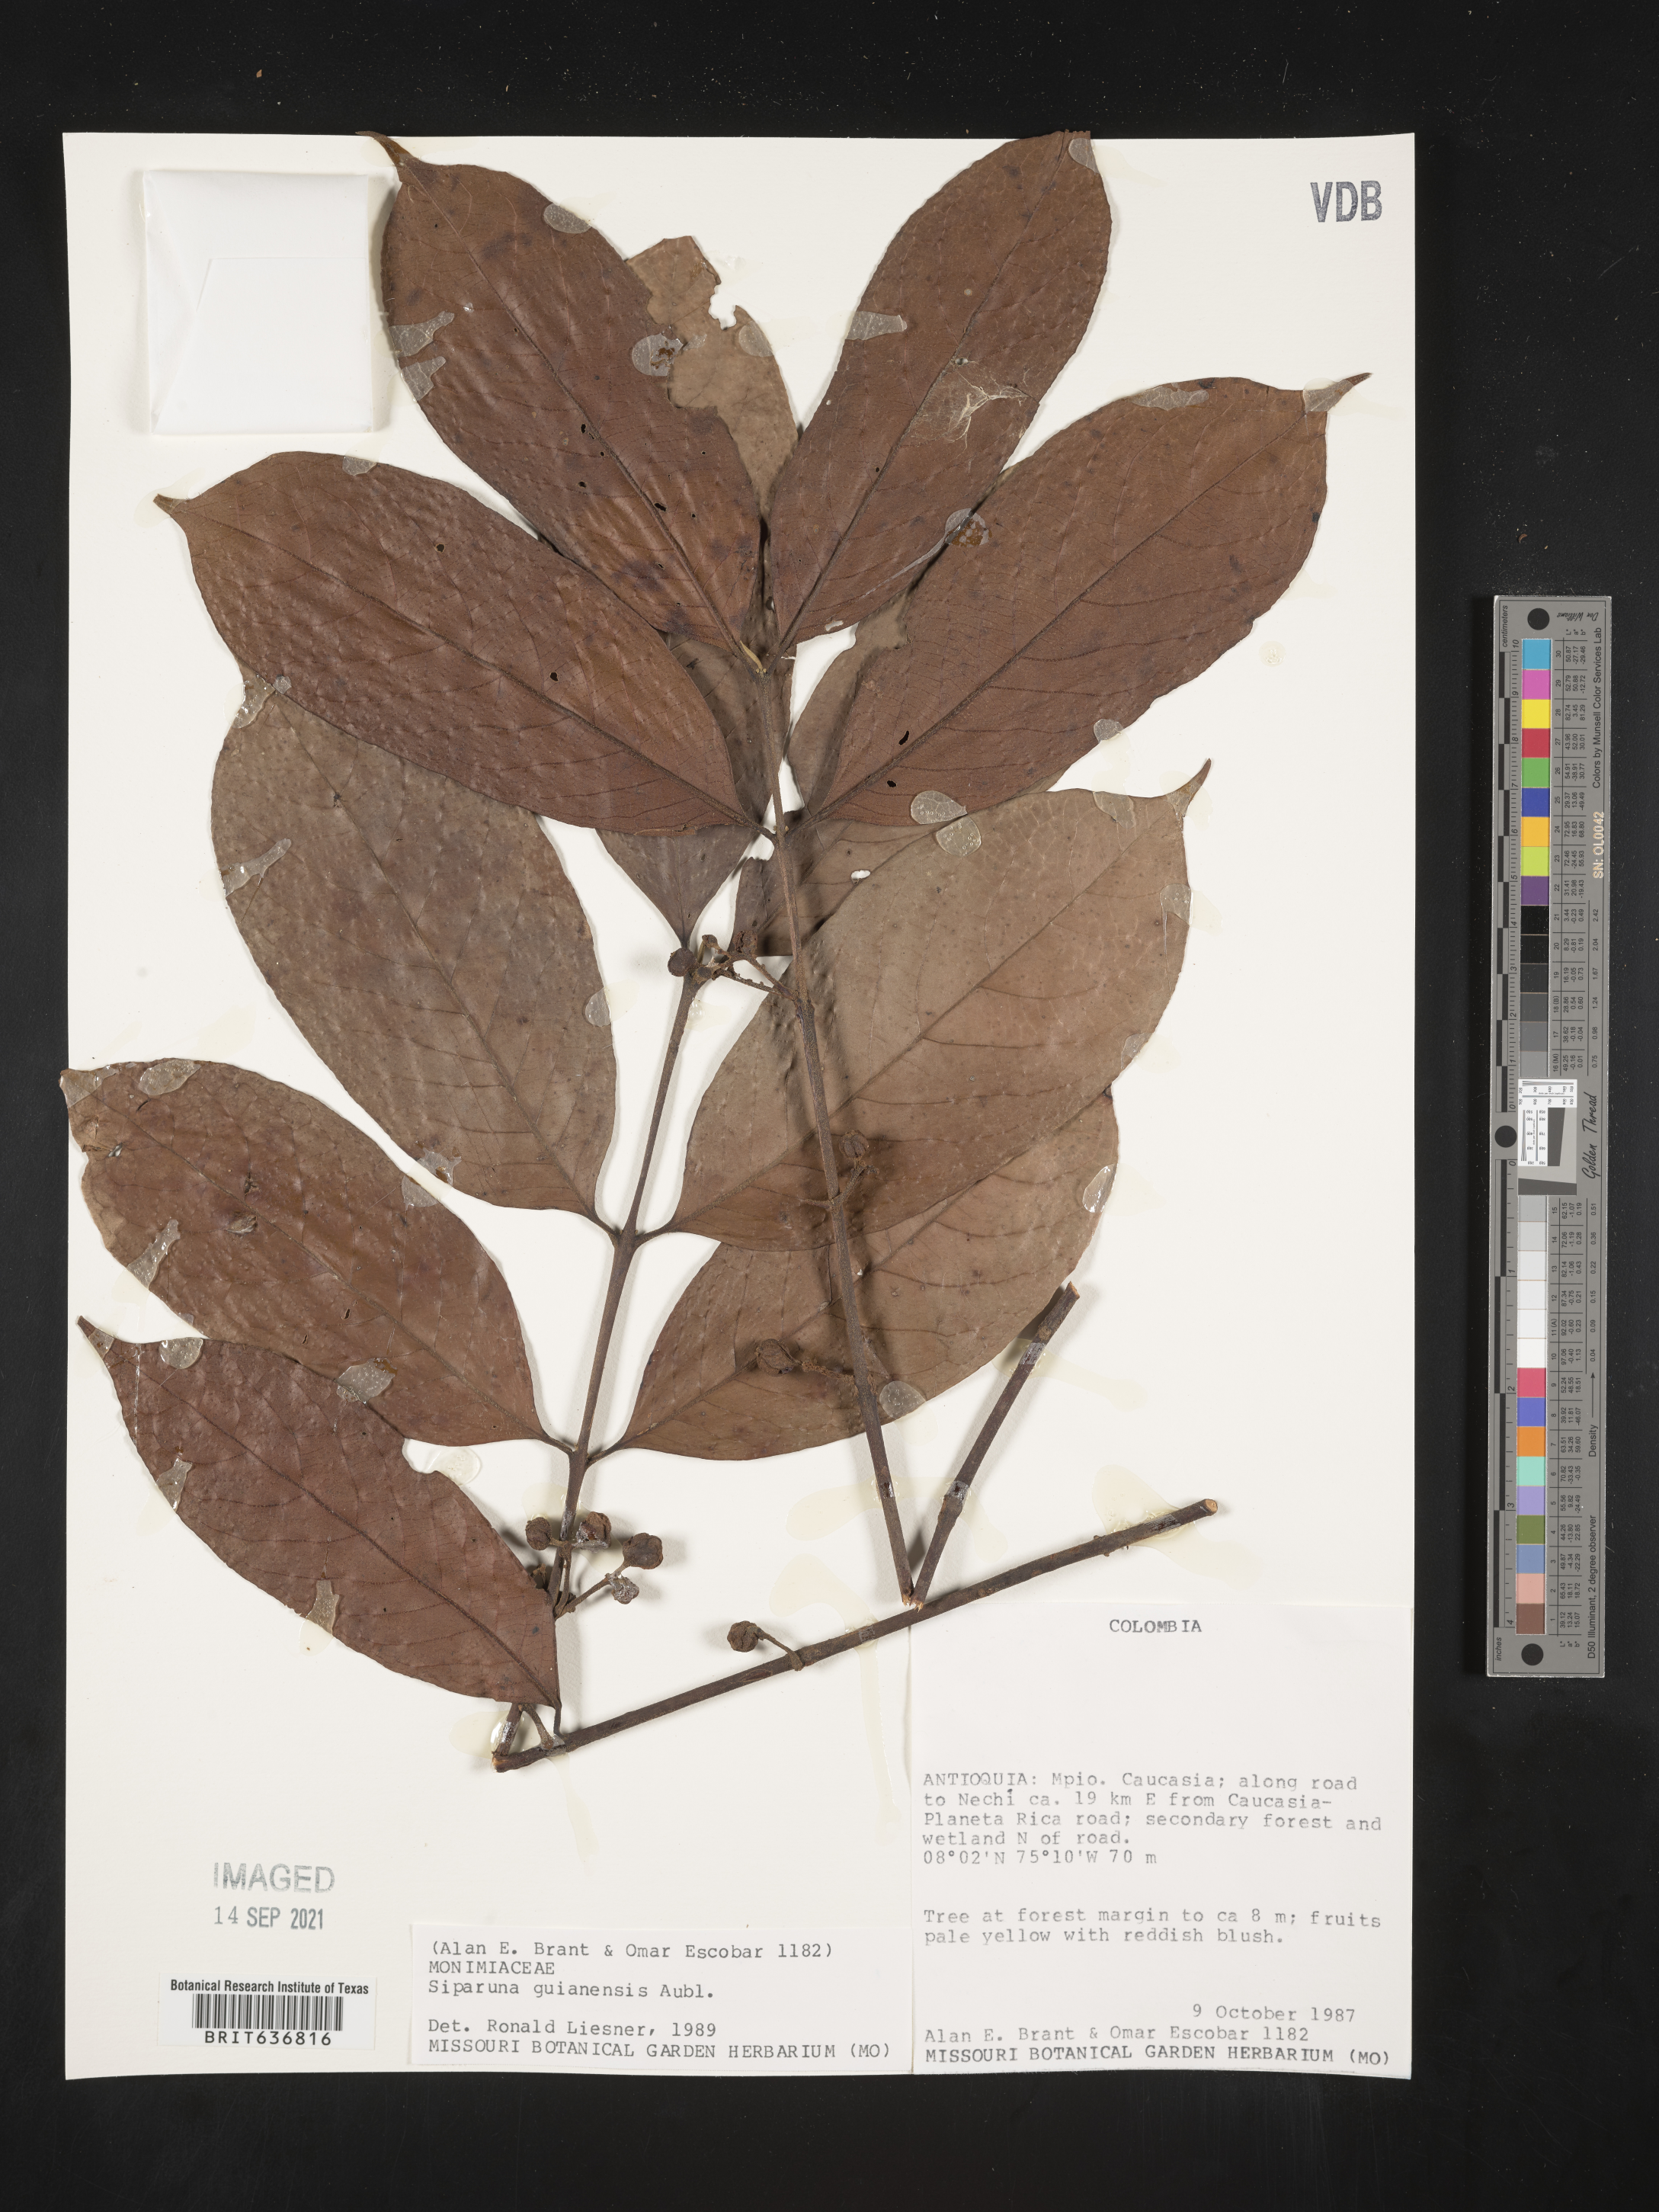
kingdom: Plantae
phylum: Tracheophyta
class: Magnoliopsida
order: Laurales
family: Siparunaceae
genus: Siparuna
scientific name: Siparuna
